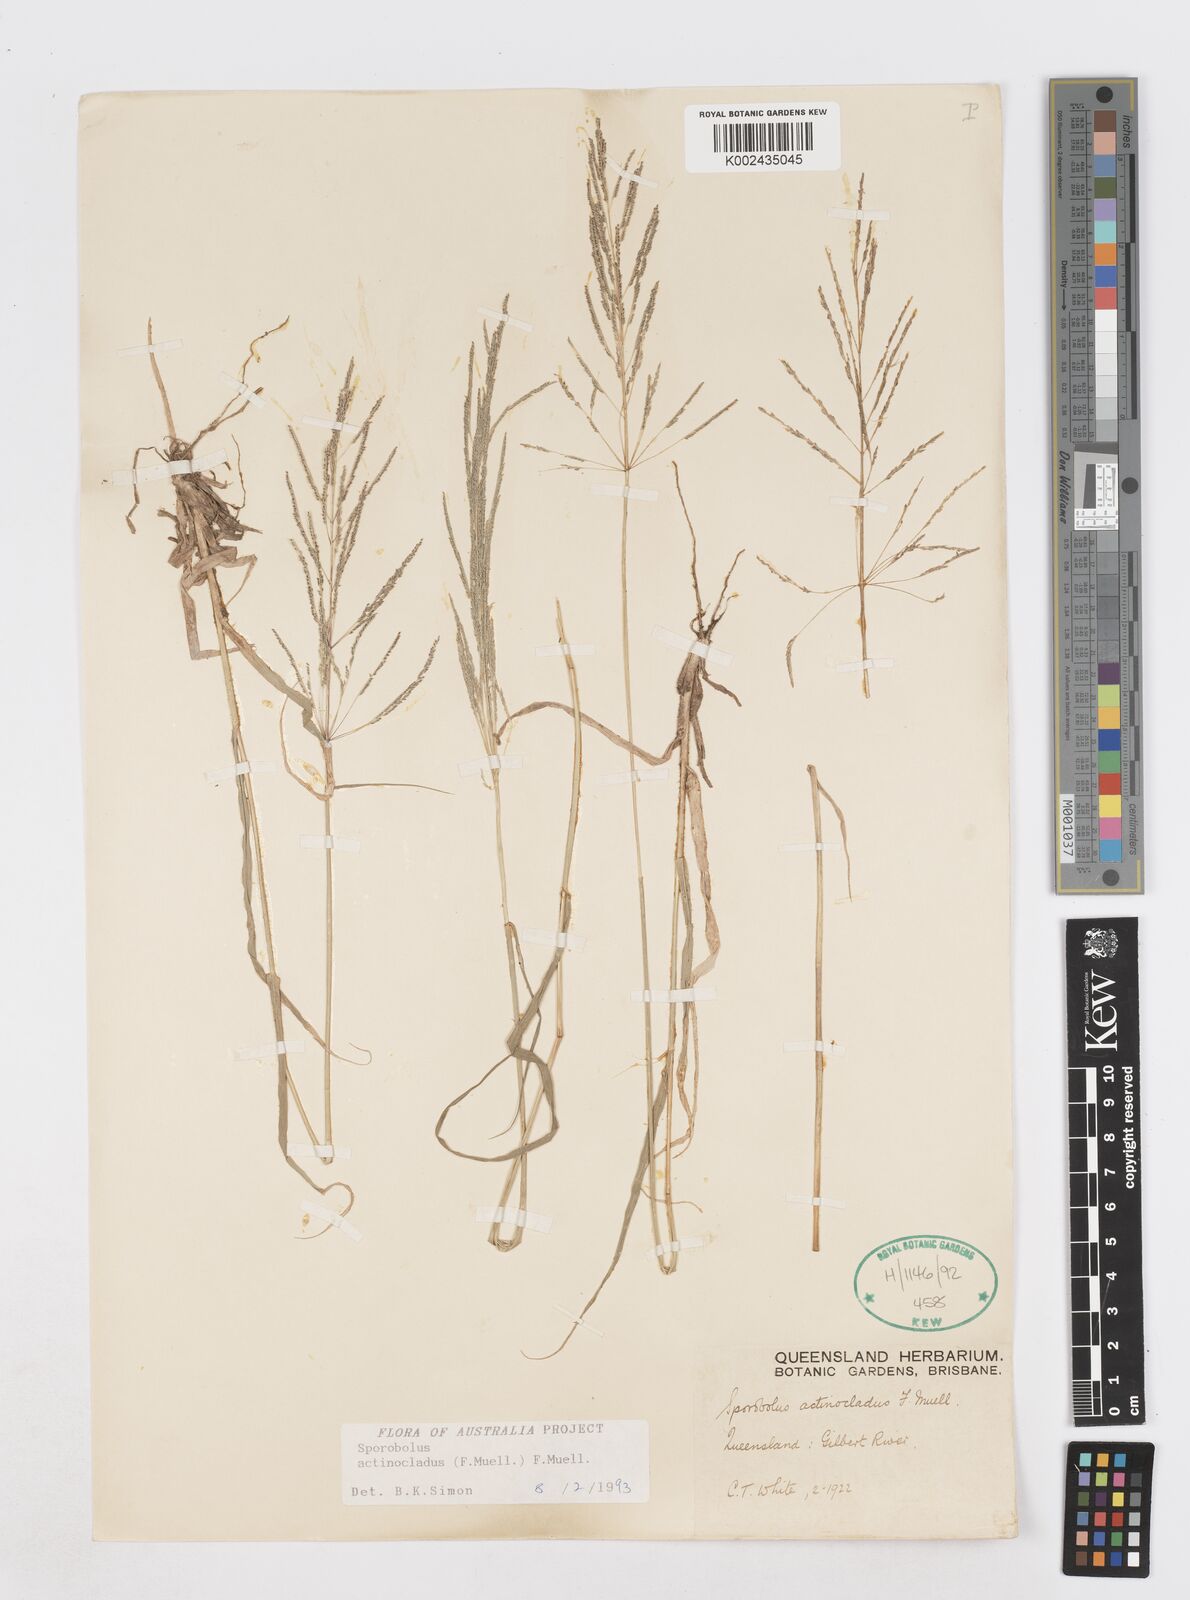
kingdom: Plantae
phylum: Tracheophyta
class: Liliopsida
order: Poales
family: Poaceae
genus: Sporobolus
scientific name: Sporobolus actinocladus
